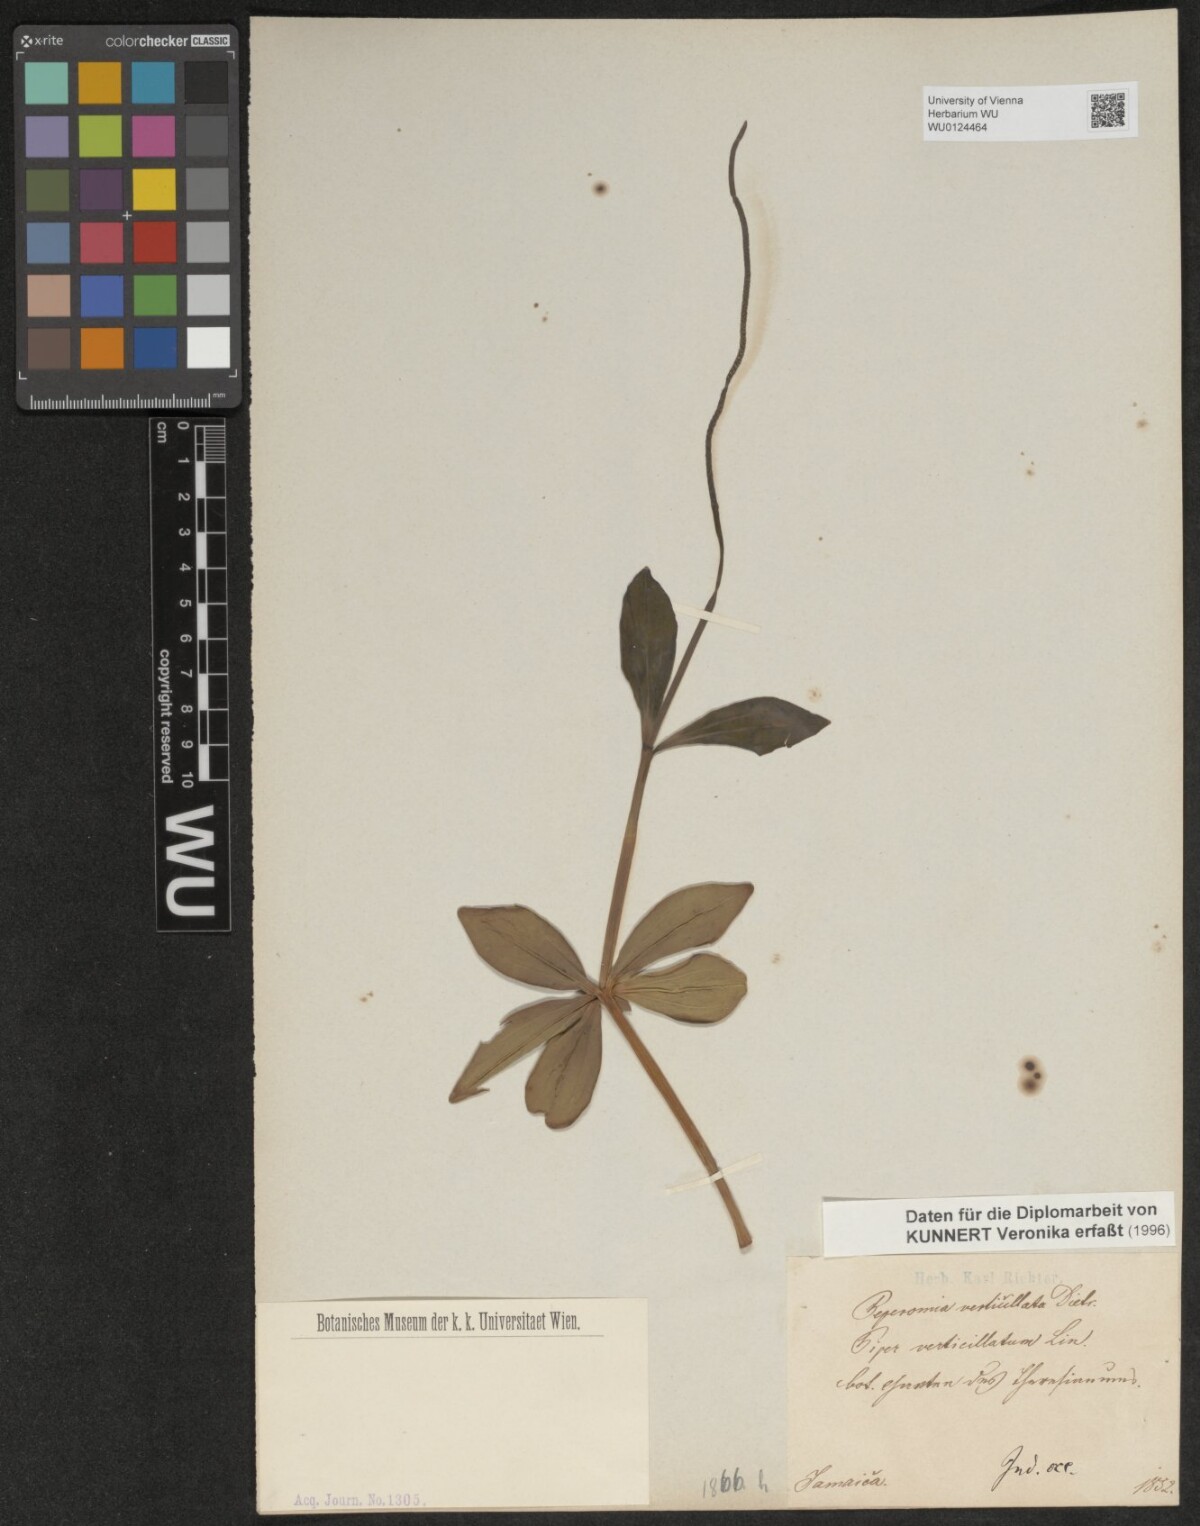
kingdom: Plantae
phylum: Tracheophyta
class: Magnoliopsida
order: Piperales
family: Piperaceae
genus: Peperomia
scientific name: Peperomia verticillata
